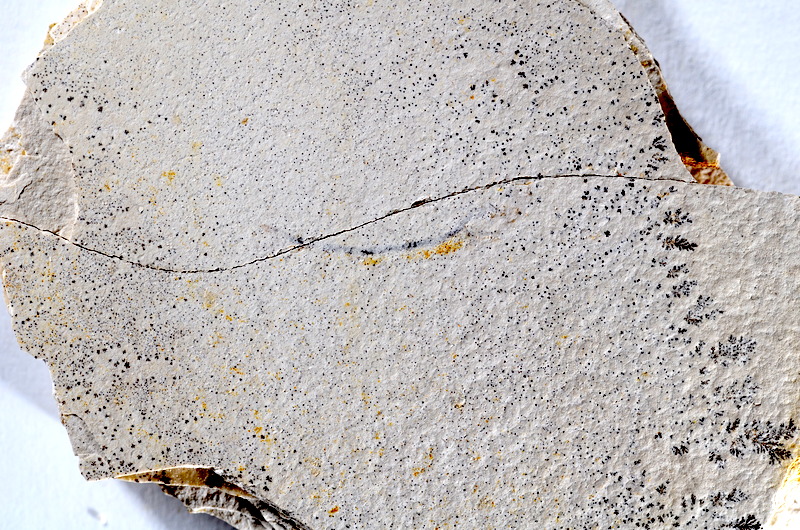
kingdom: Animalia
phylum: Chordata
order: Salmoniformes
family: Orthogonikleithridae
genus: Orthogonikleithrus
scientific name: Orthogonikleithrus hoelli
